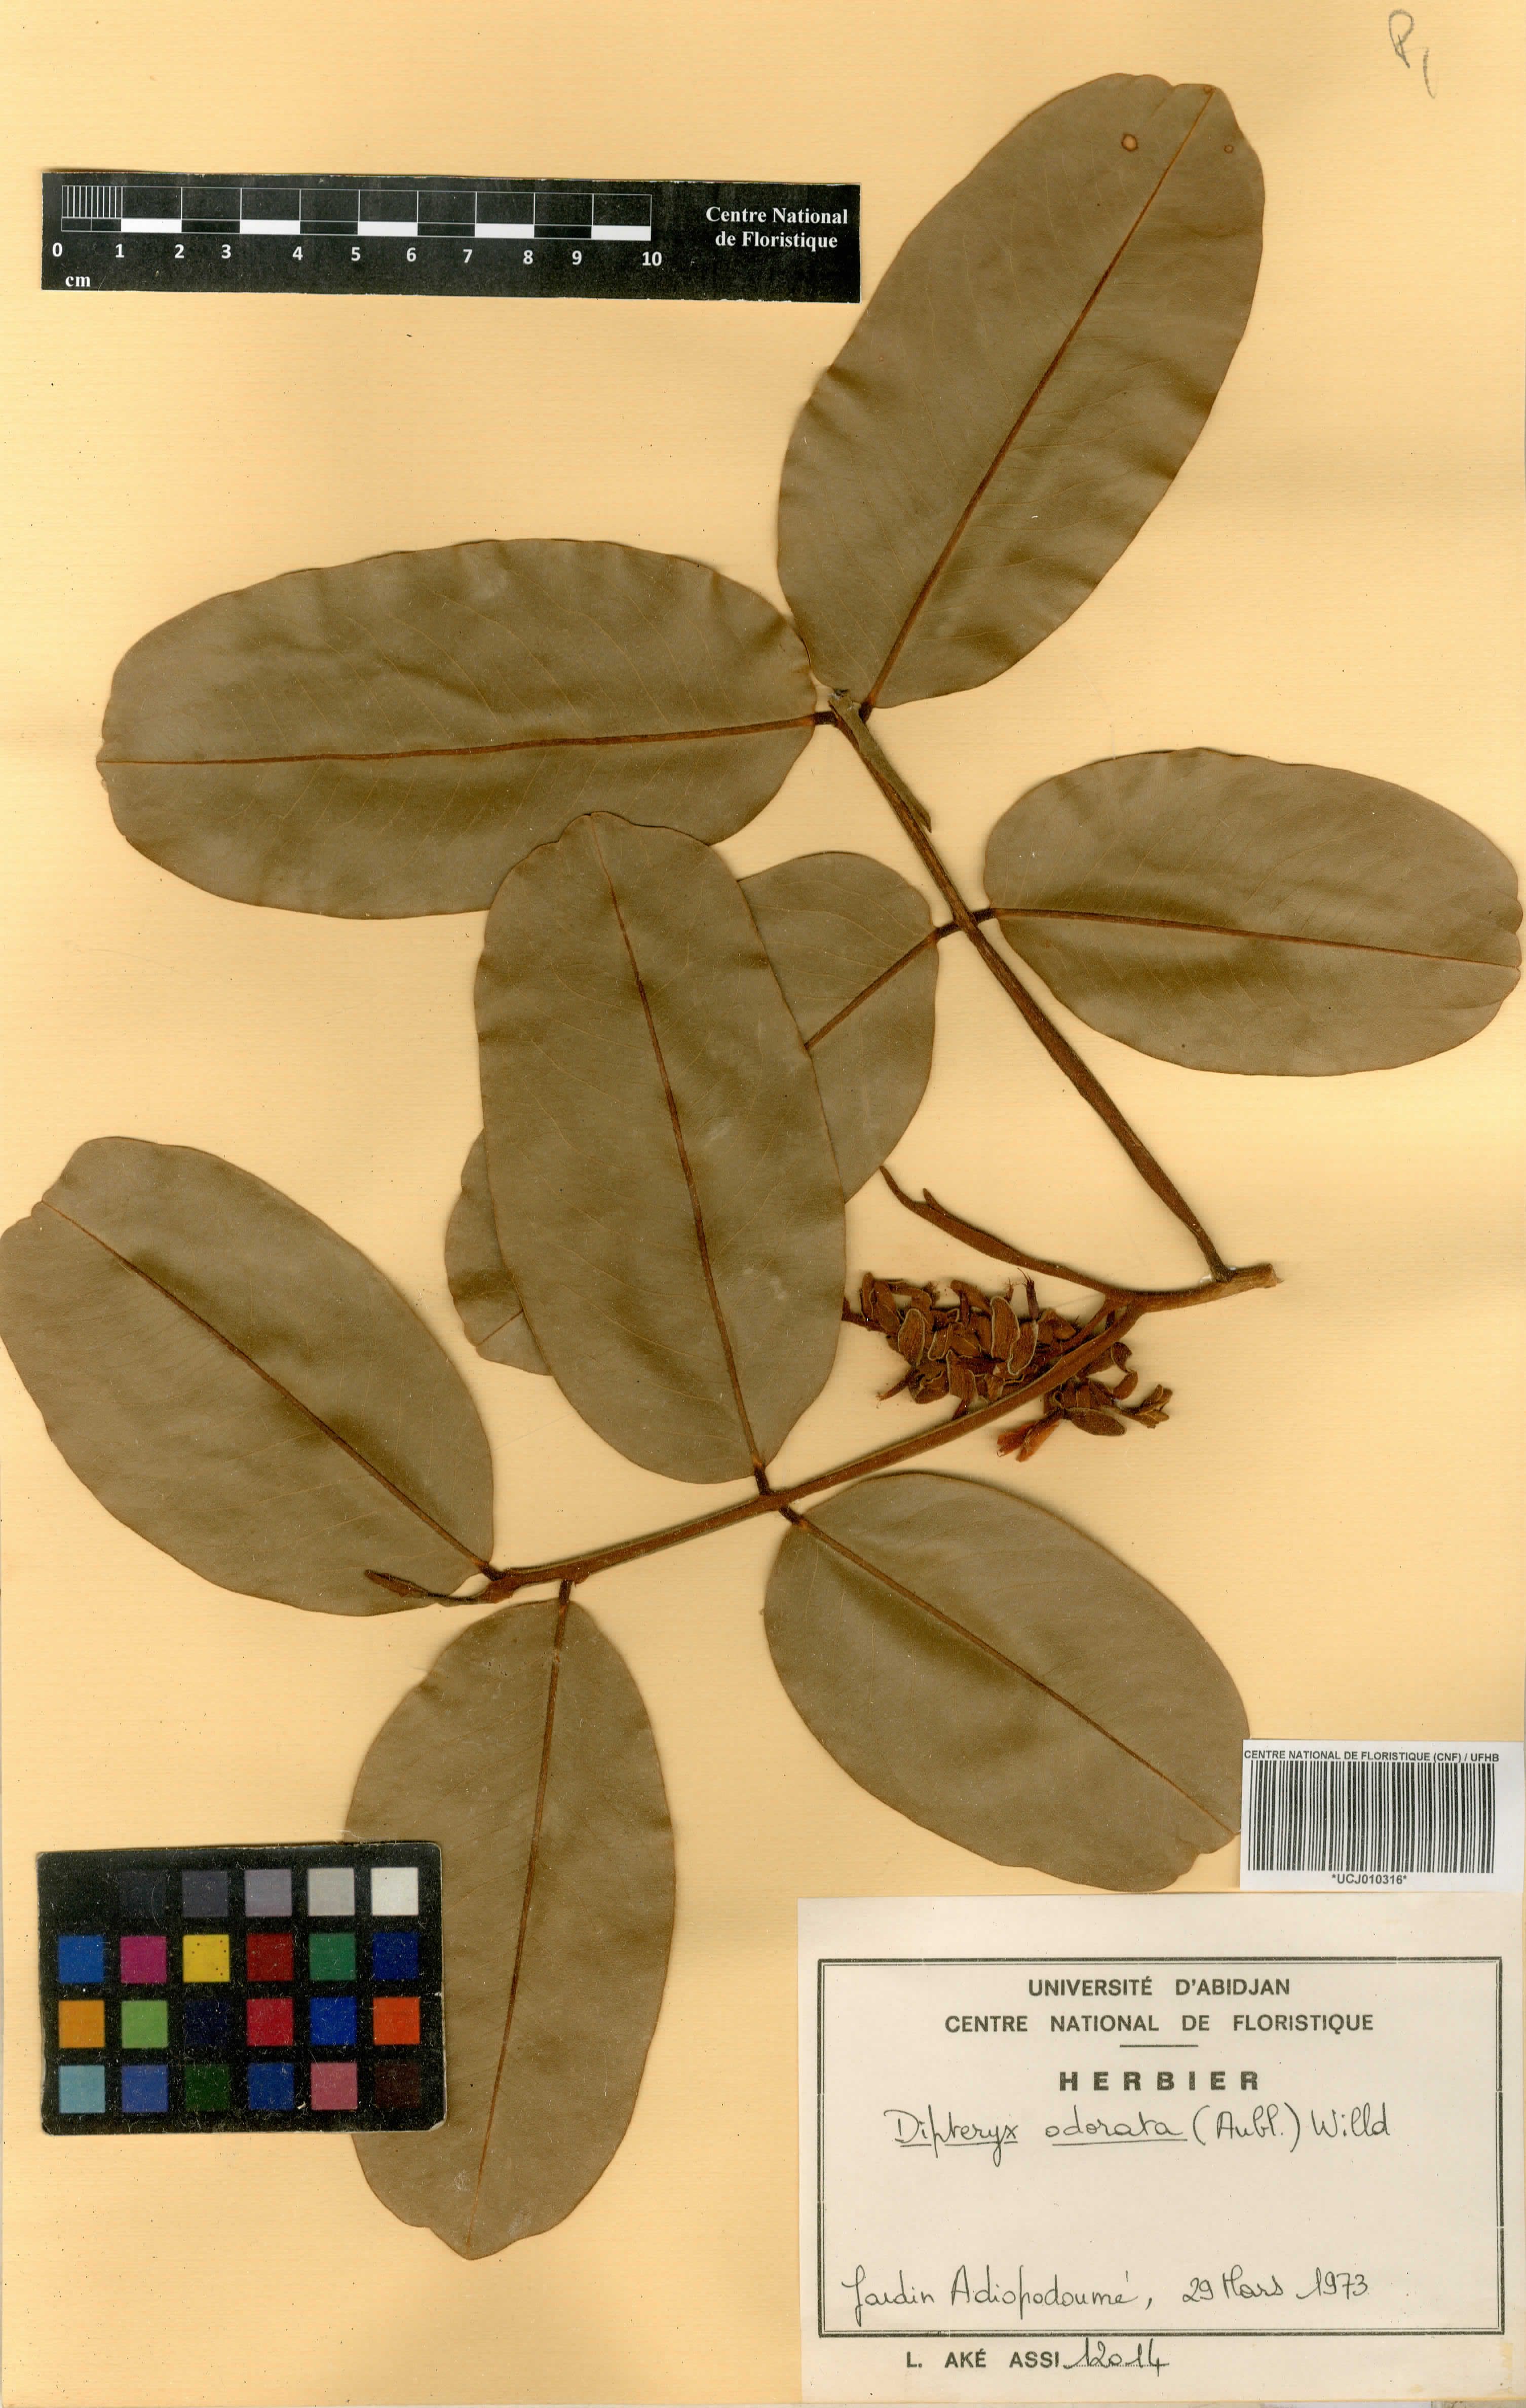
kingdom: Plantae
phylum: Tracheophyta
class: Magnoliopsida
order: Fabales
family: Fabaceae
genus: Dipteryx
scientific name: Dipteryx odorata
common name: Tonka
